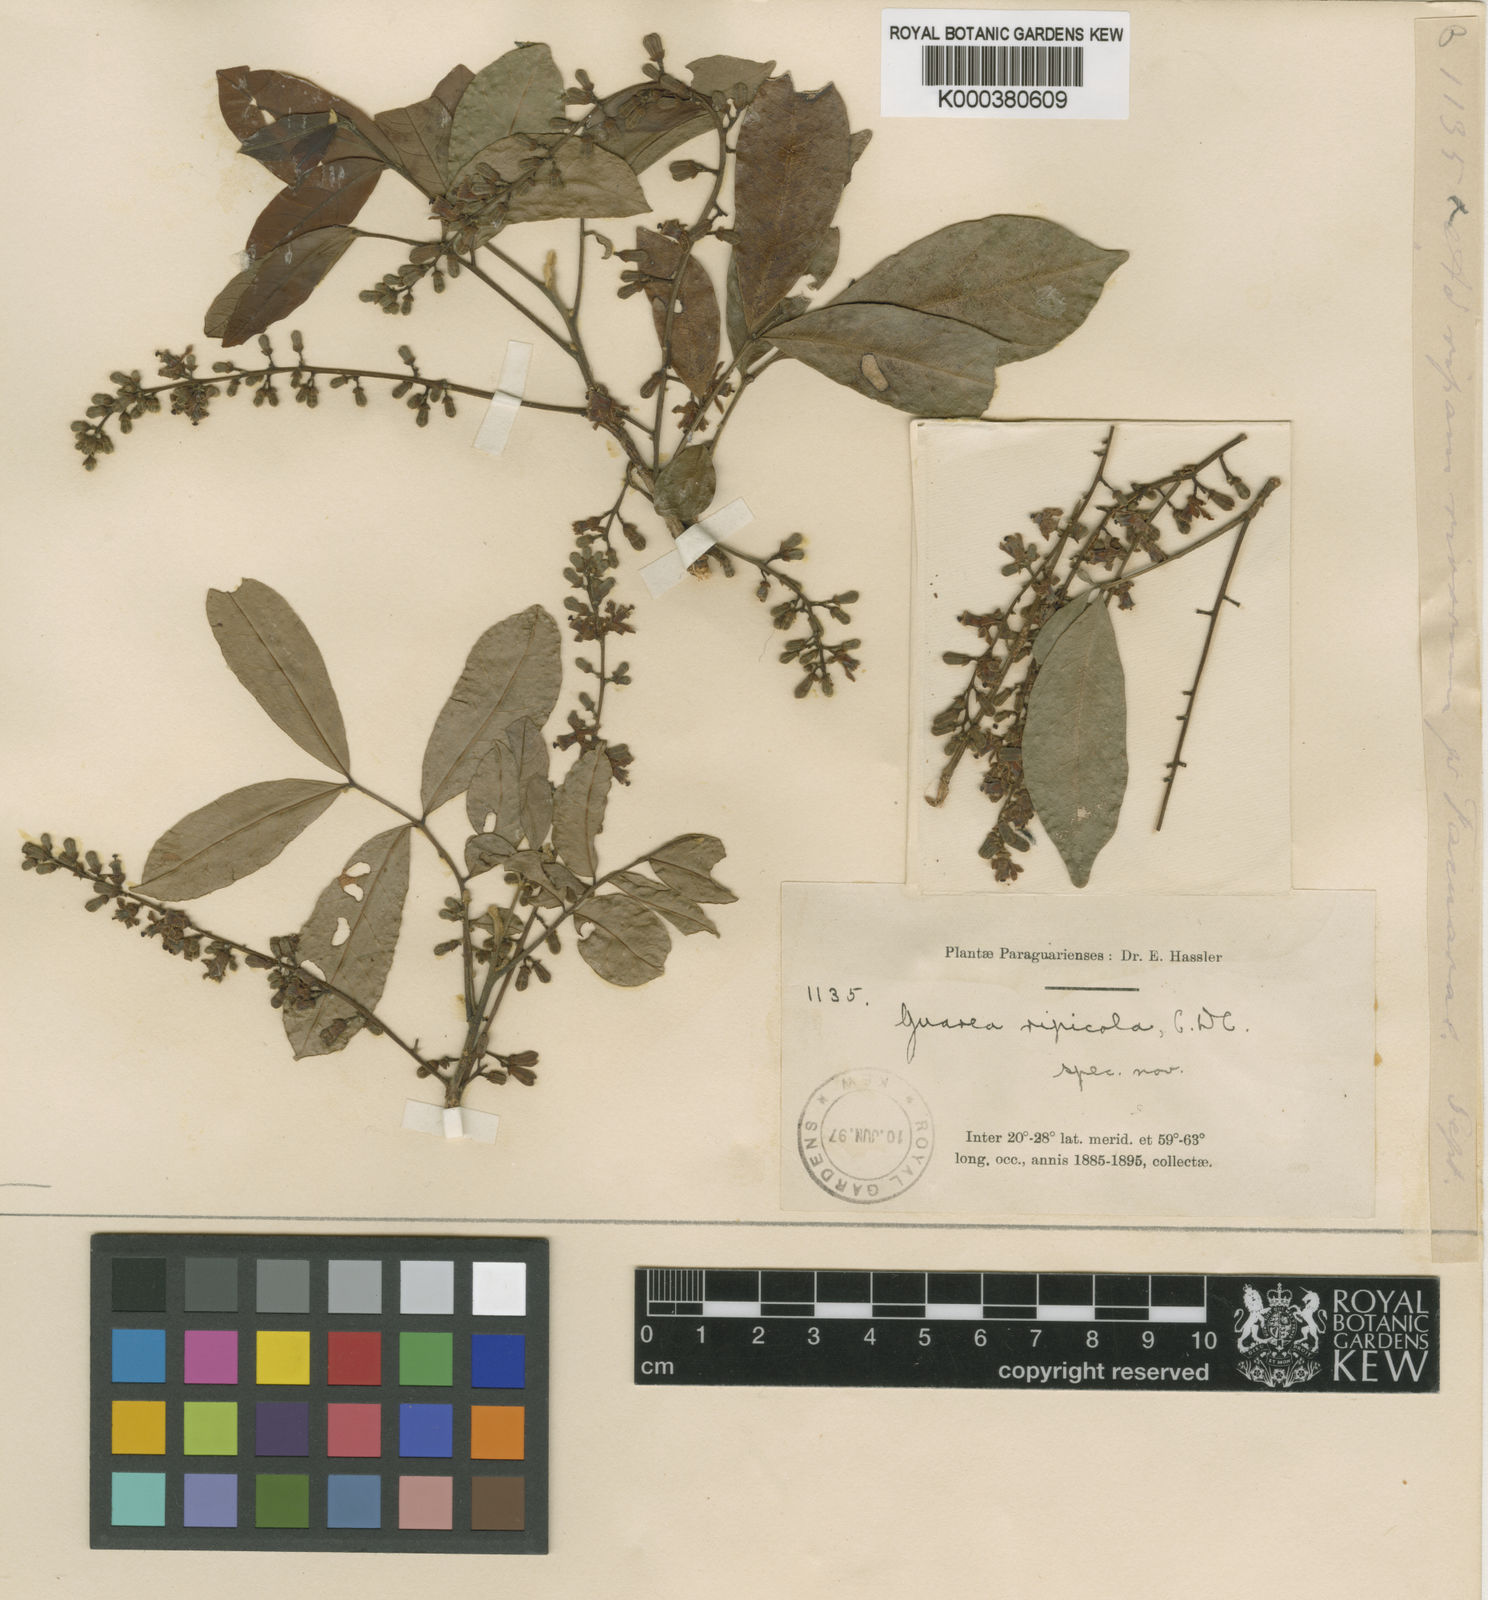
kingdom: Plantae
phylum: Tracheophyta
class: Magnoliopsida
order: Sapindales
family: Meliaceae
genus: Guarea
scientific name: Guarea macrophylla
